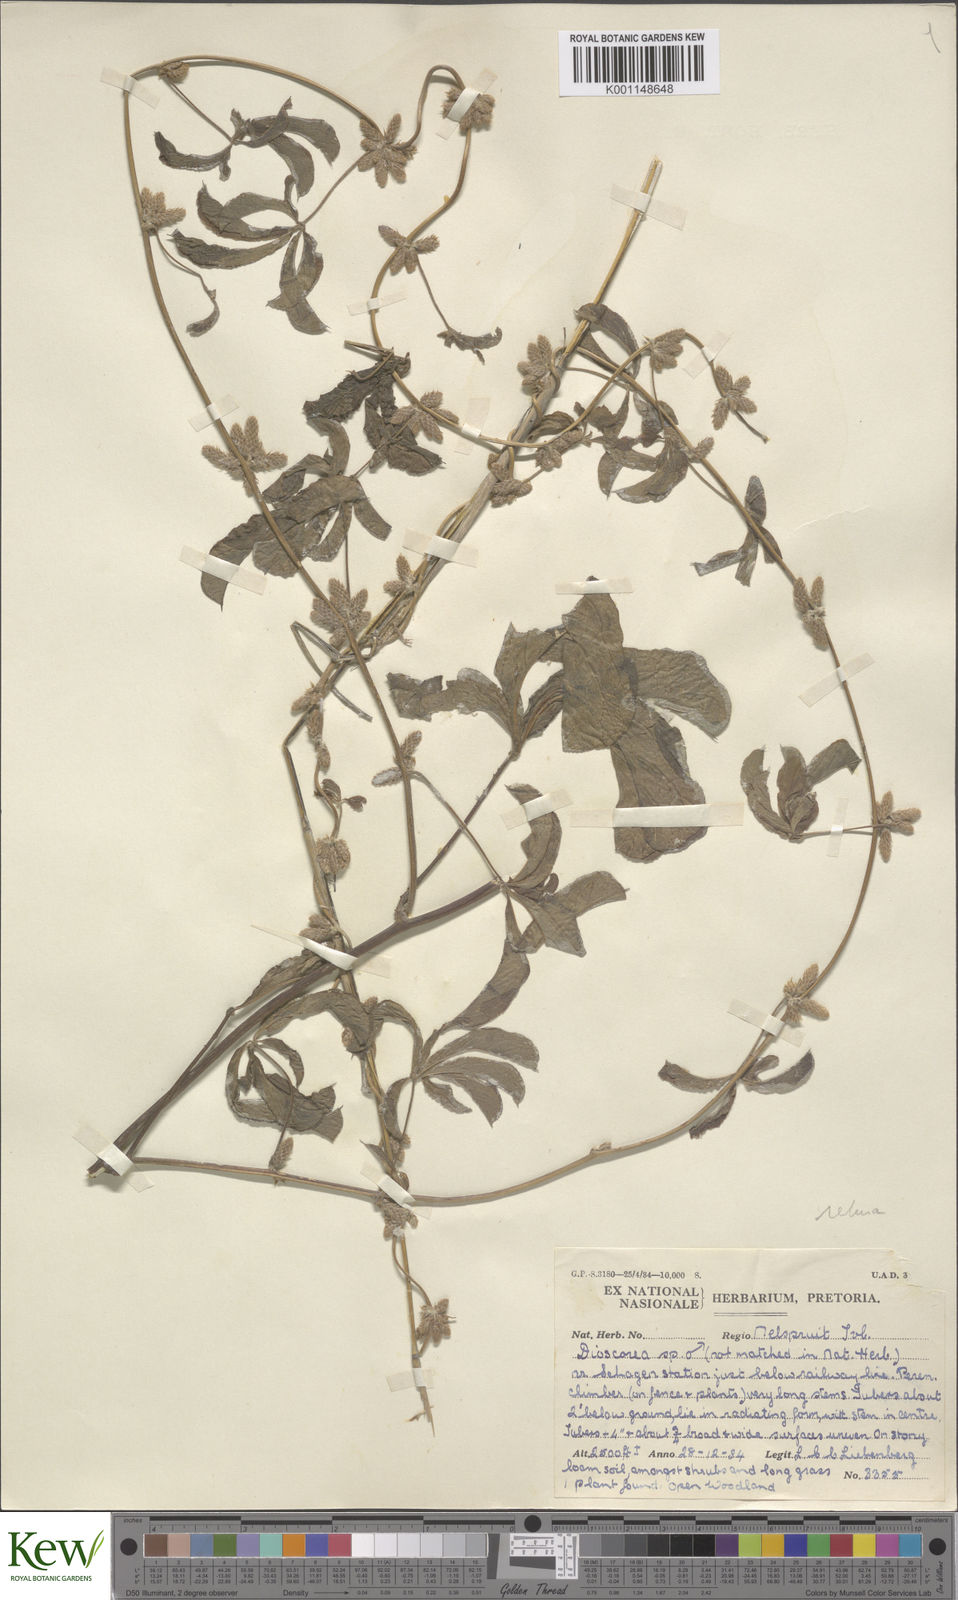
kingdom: Plantae
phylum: Tracheophyta
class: Liliopsida
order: Dioscoreales
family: Dioscoreaceae
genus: Dioscorea
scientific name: Dioscorea quartiniana
